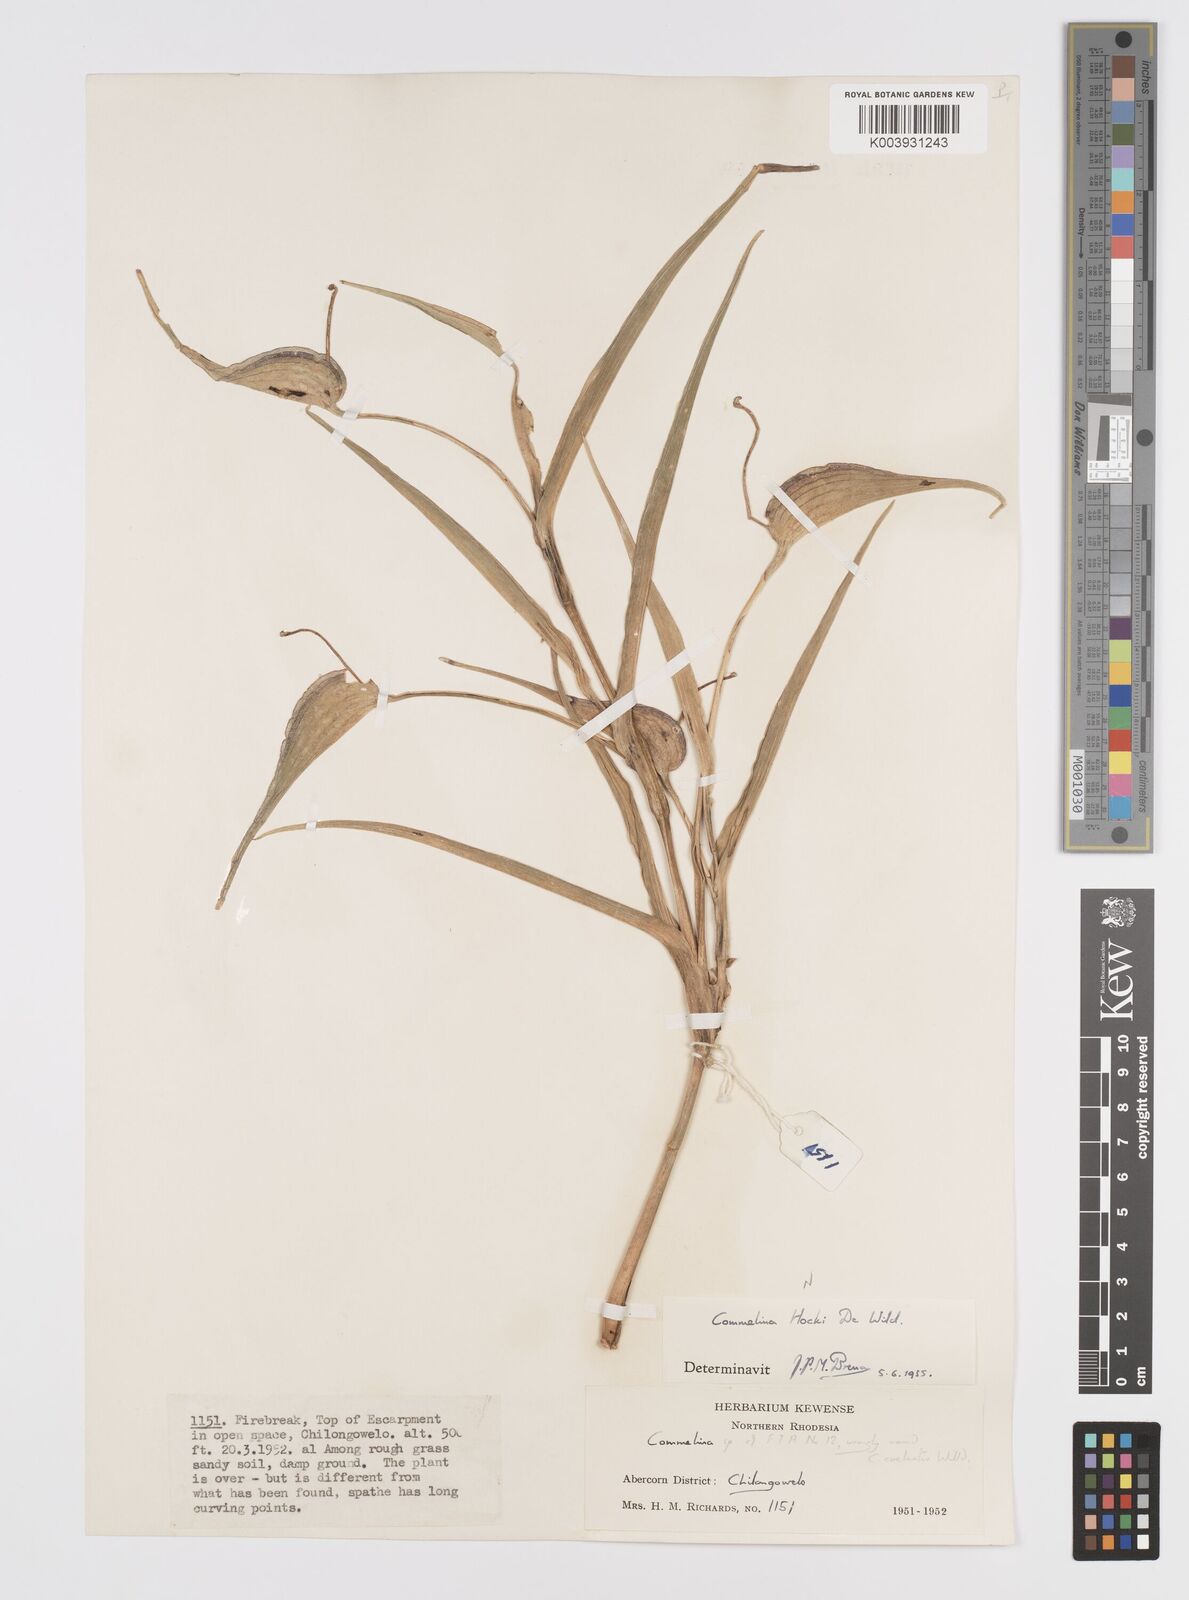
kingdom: Plantae
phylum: Tracheophyta
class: Liliopsida
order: Commelinales
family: Commelinaceae
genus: Commelina
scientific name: Commelina hockii
